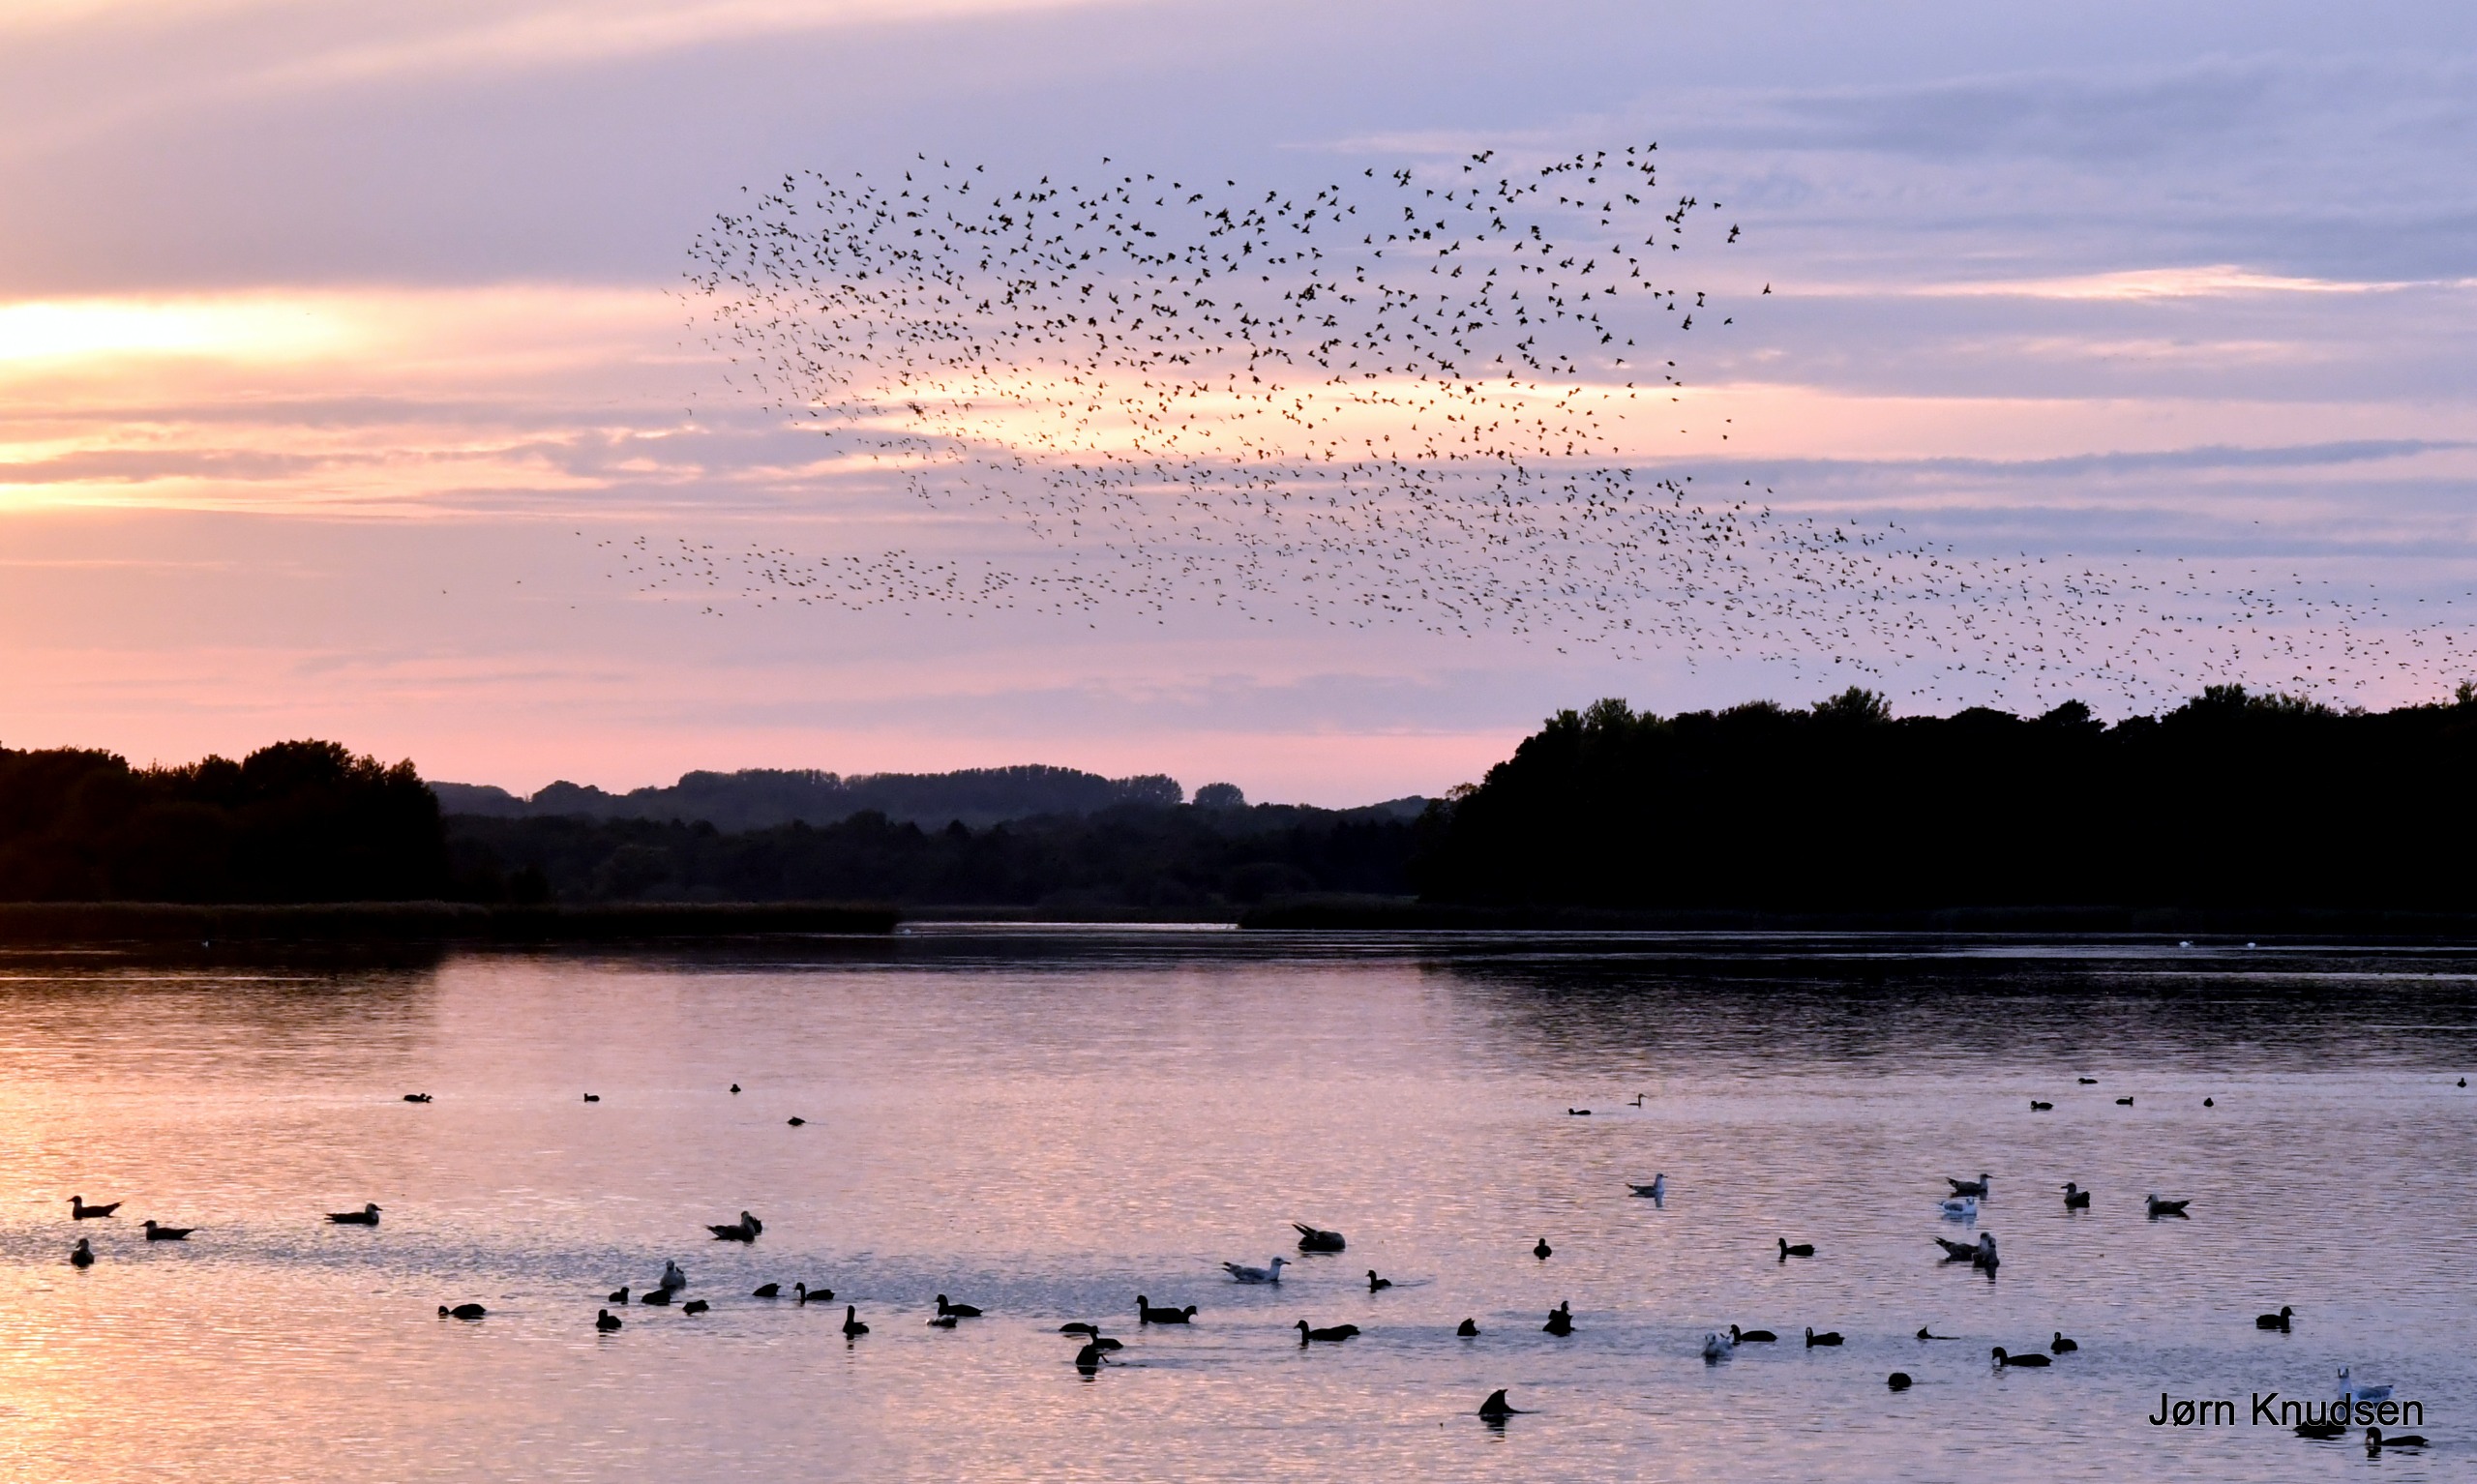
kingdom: Animalia
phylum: Chordata
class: Aves
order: Passeriformes
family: Sturnidae
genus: Sturnus
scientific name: Sturnus vulgaris
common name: Stær
